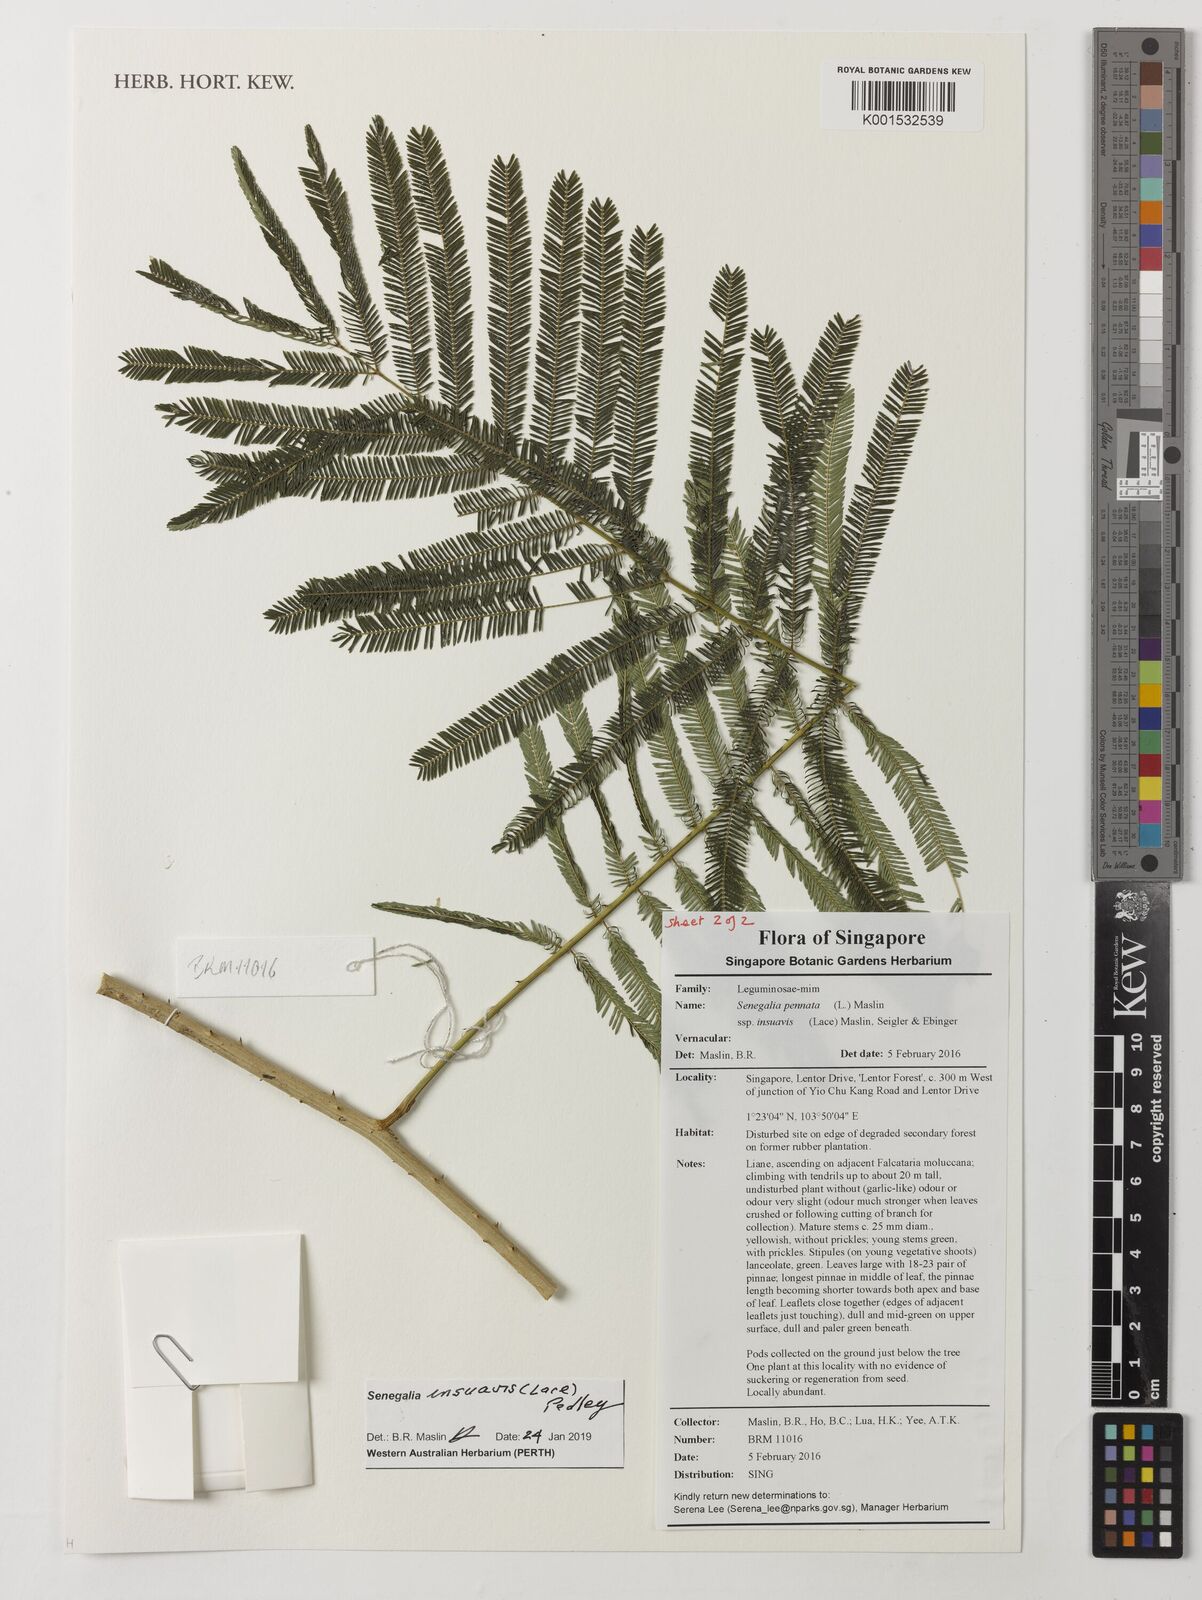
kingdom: Plantae
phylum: Tracheophyta
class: Magnoliopsida
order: Fabales
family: Fabaceae
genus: Senegalia
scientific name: Senegalia pennata
